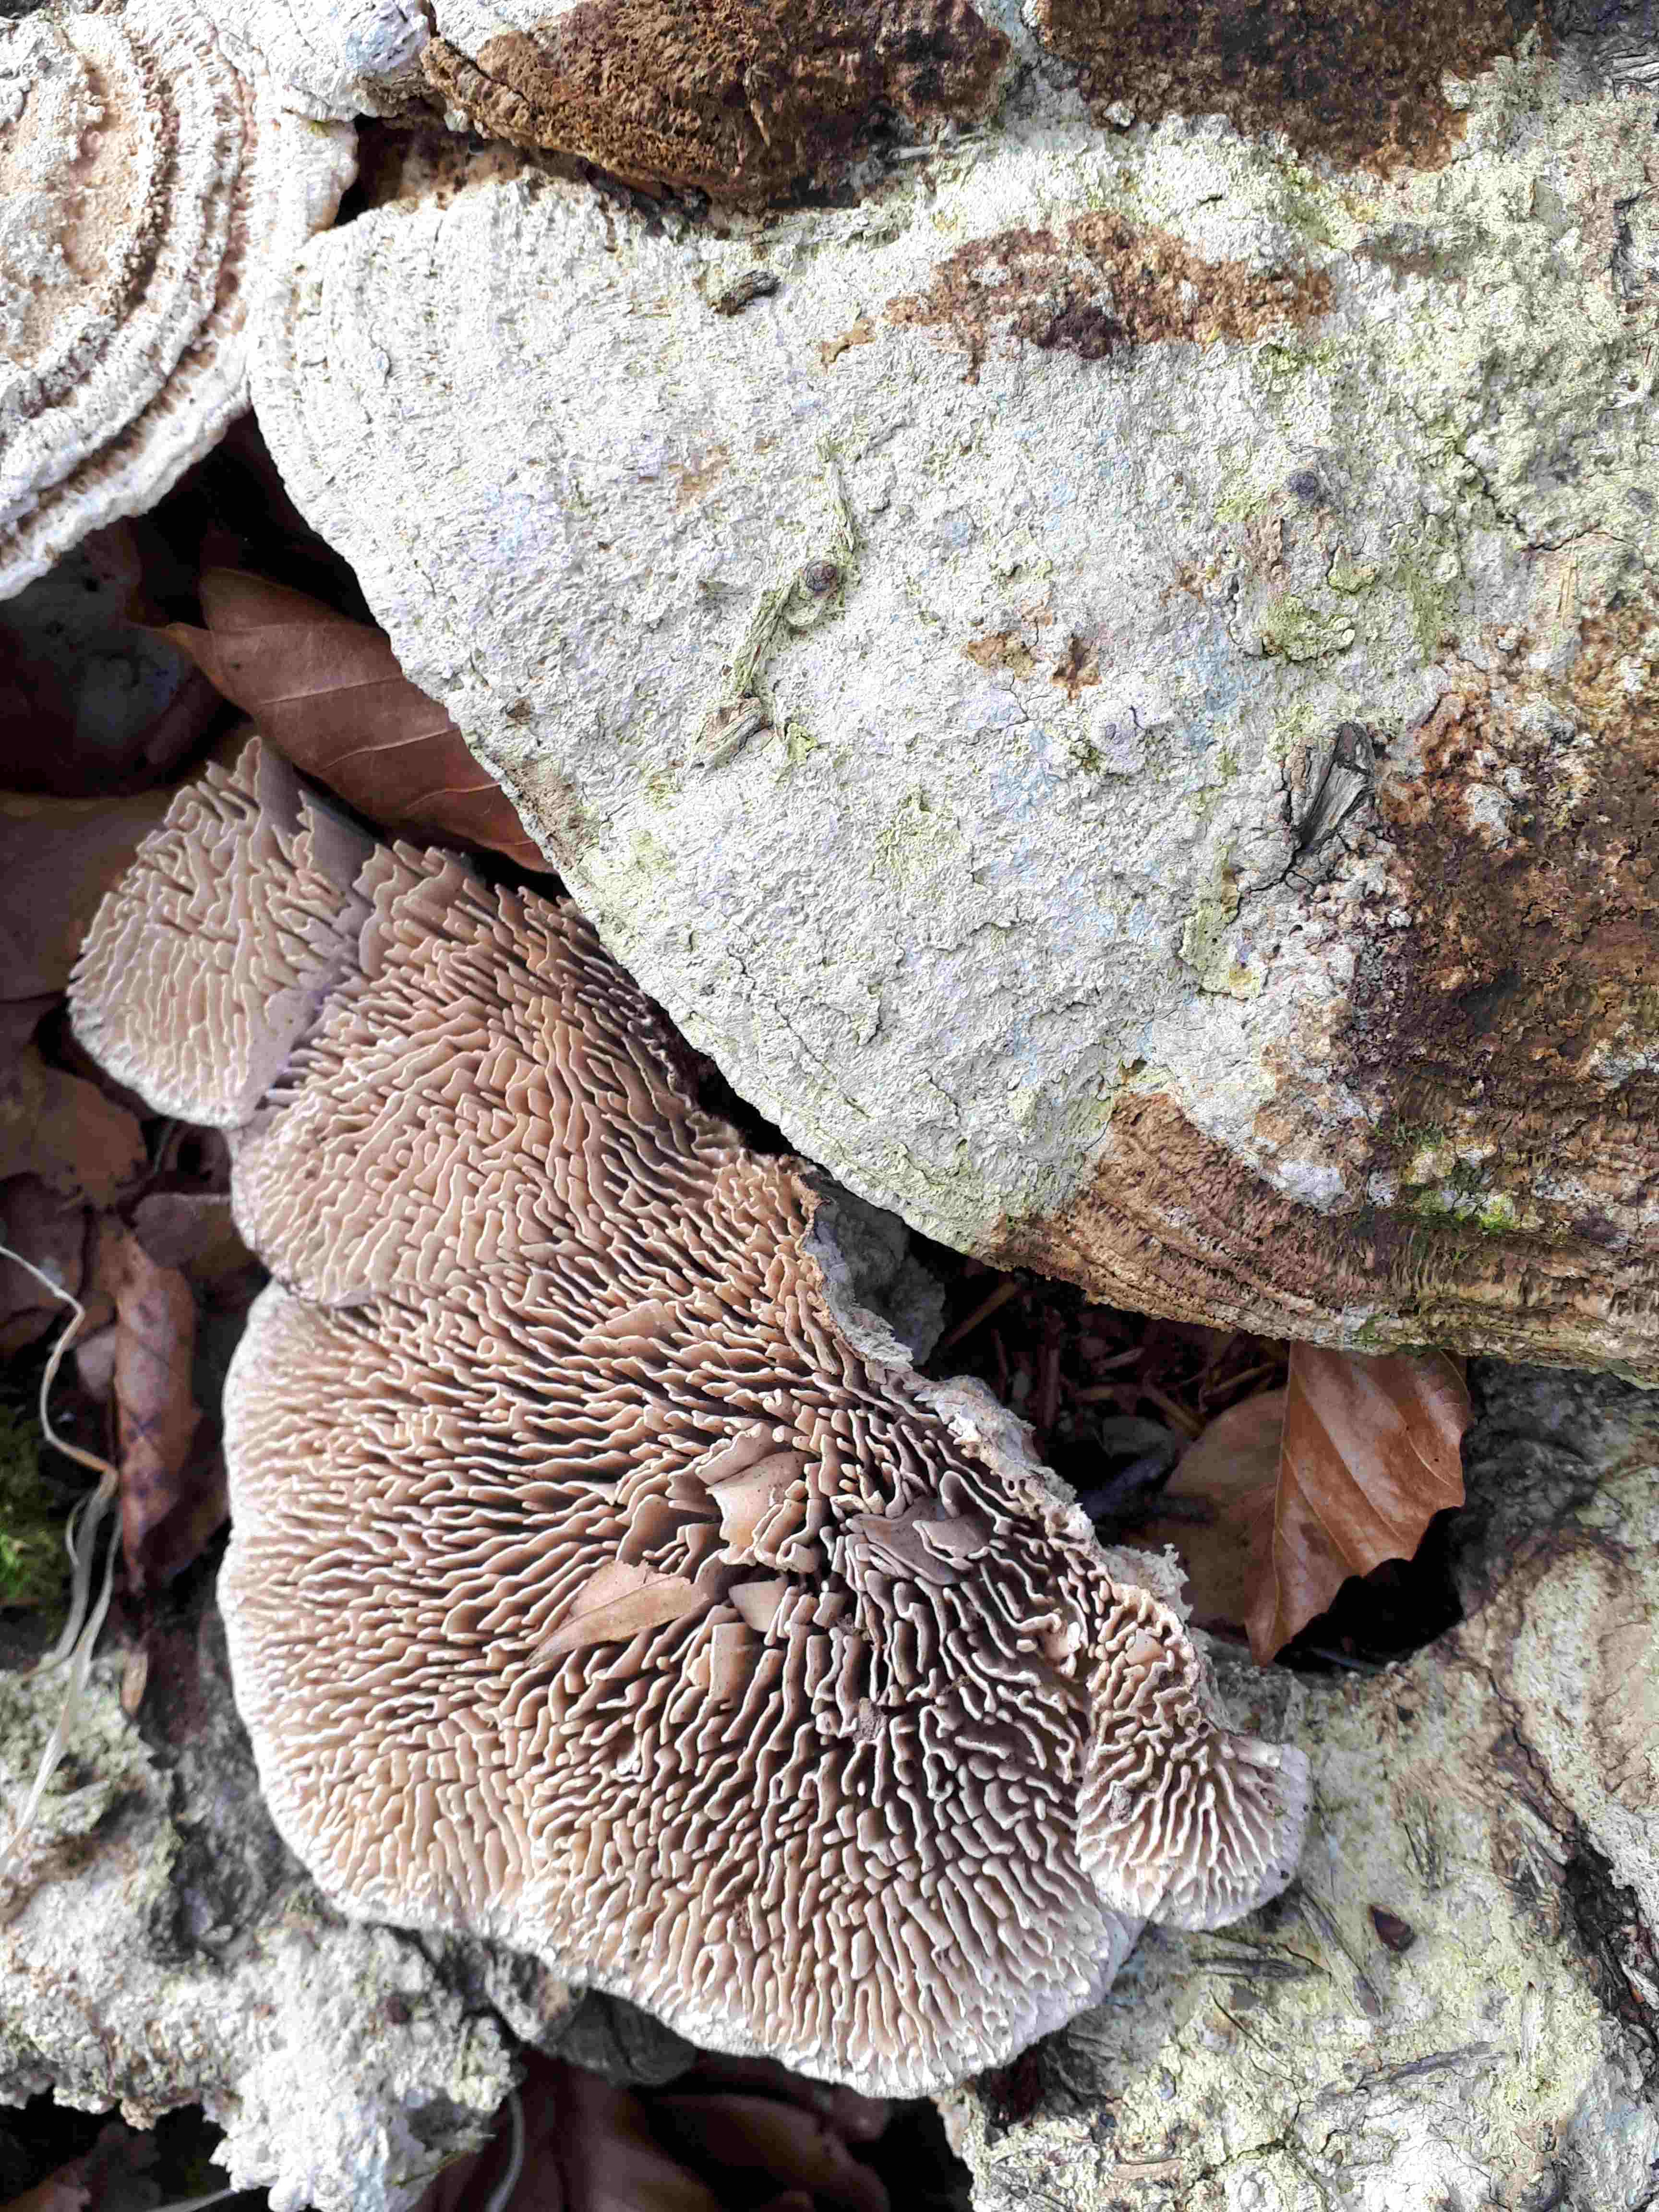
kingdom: Fungi
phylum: Basidiomycota
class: Agaricomycetes
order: Polyporales
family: Fomitopsidaceae
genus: Daedalea
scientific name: Daedalea quercina
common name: ege-labyrintsvamp
